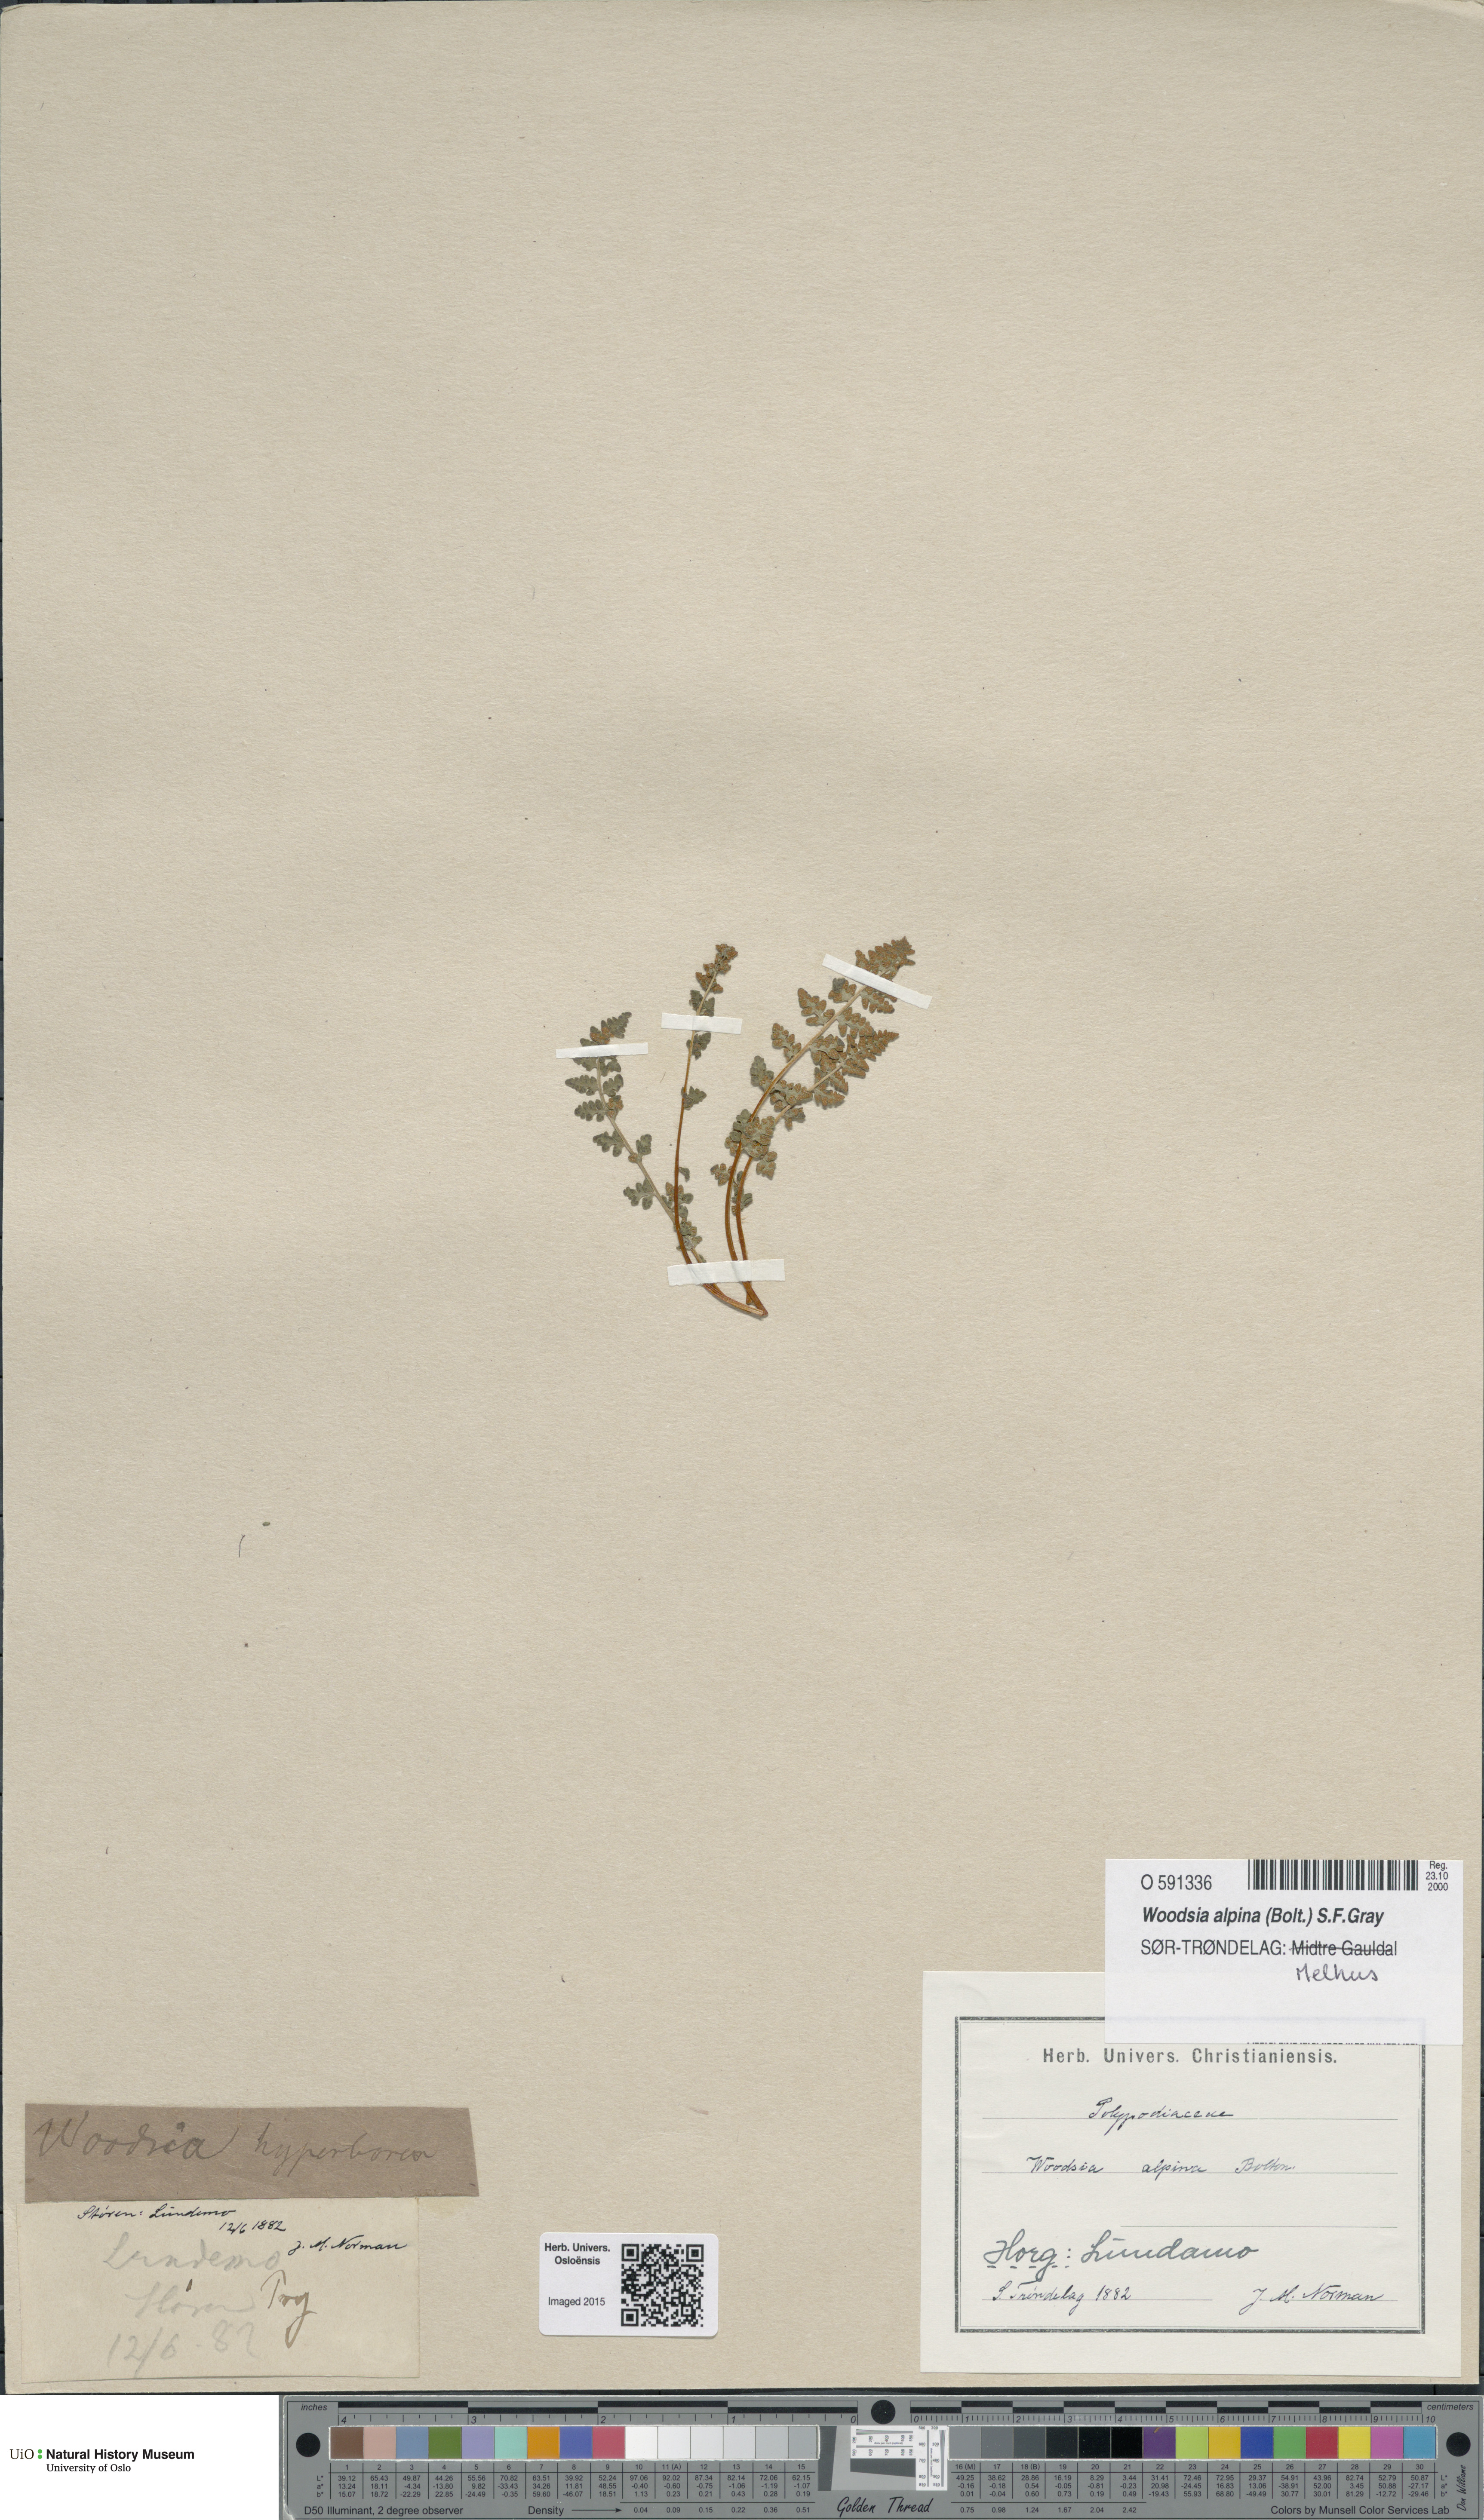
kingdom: Plantae
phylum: Tracheophyta
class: Polypodiopsida
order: Polypodiales
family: Woodsiaceae
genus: Woodsia
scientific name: Woodsia alpina
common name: Alpine woodsia
